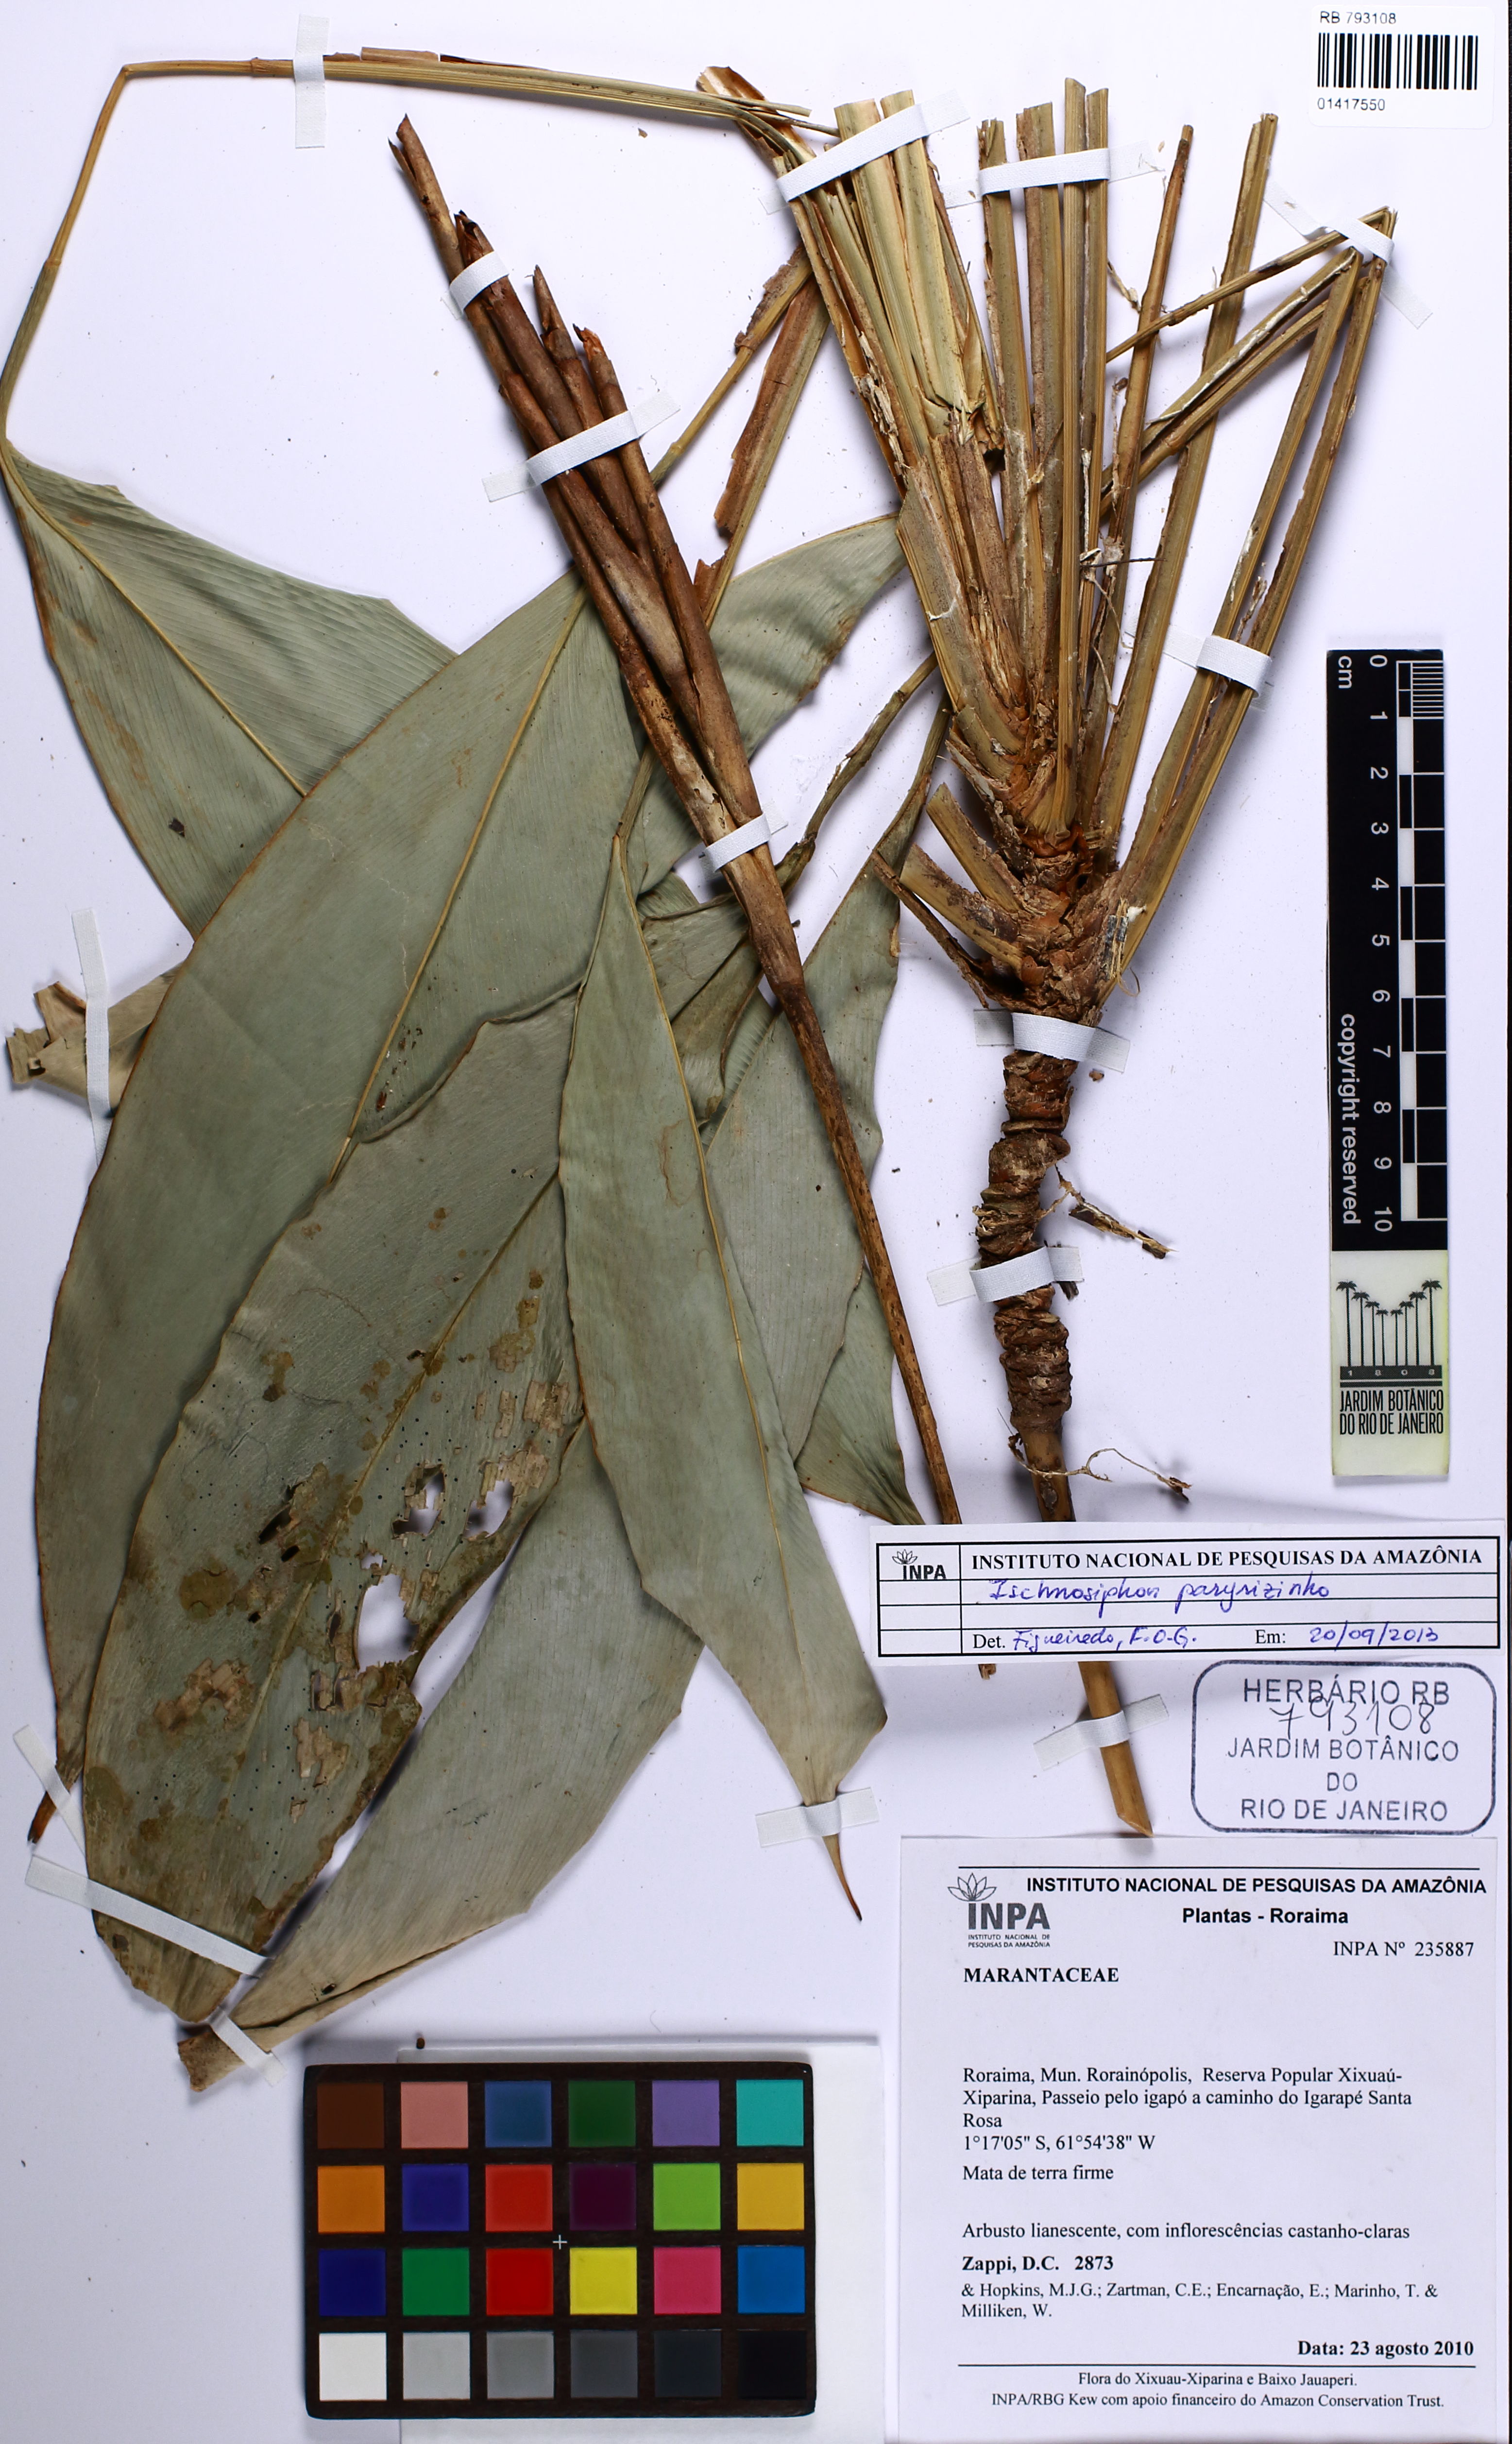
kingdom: Plantae
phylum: Tracheophyta
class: Liliopsida
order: Zingiberales
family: Marantaceae
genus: Ischnosiphon
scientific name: Ischnosiphon paryrizinho
